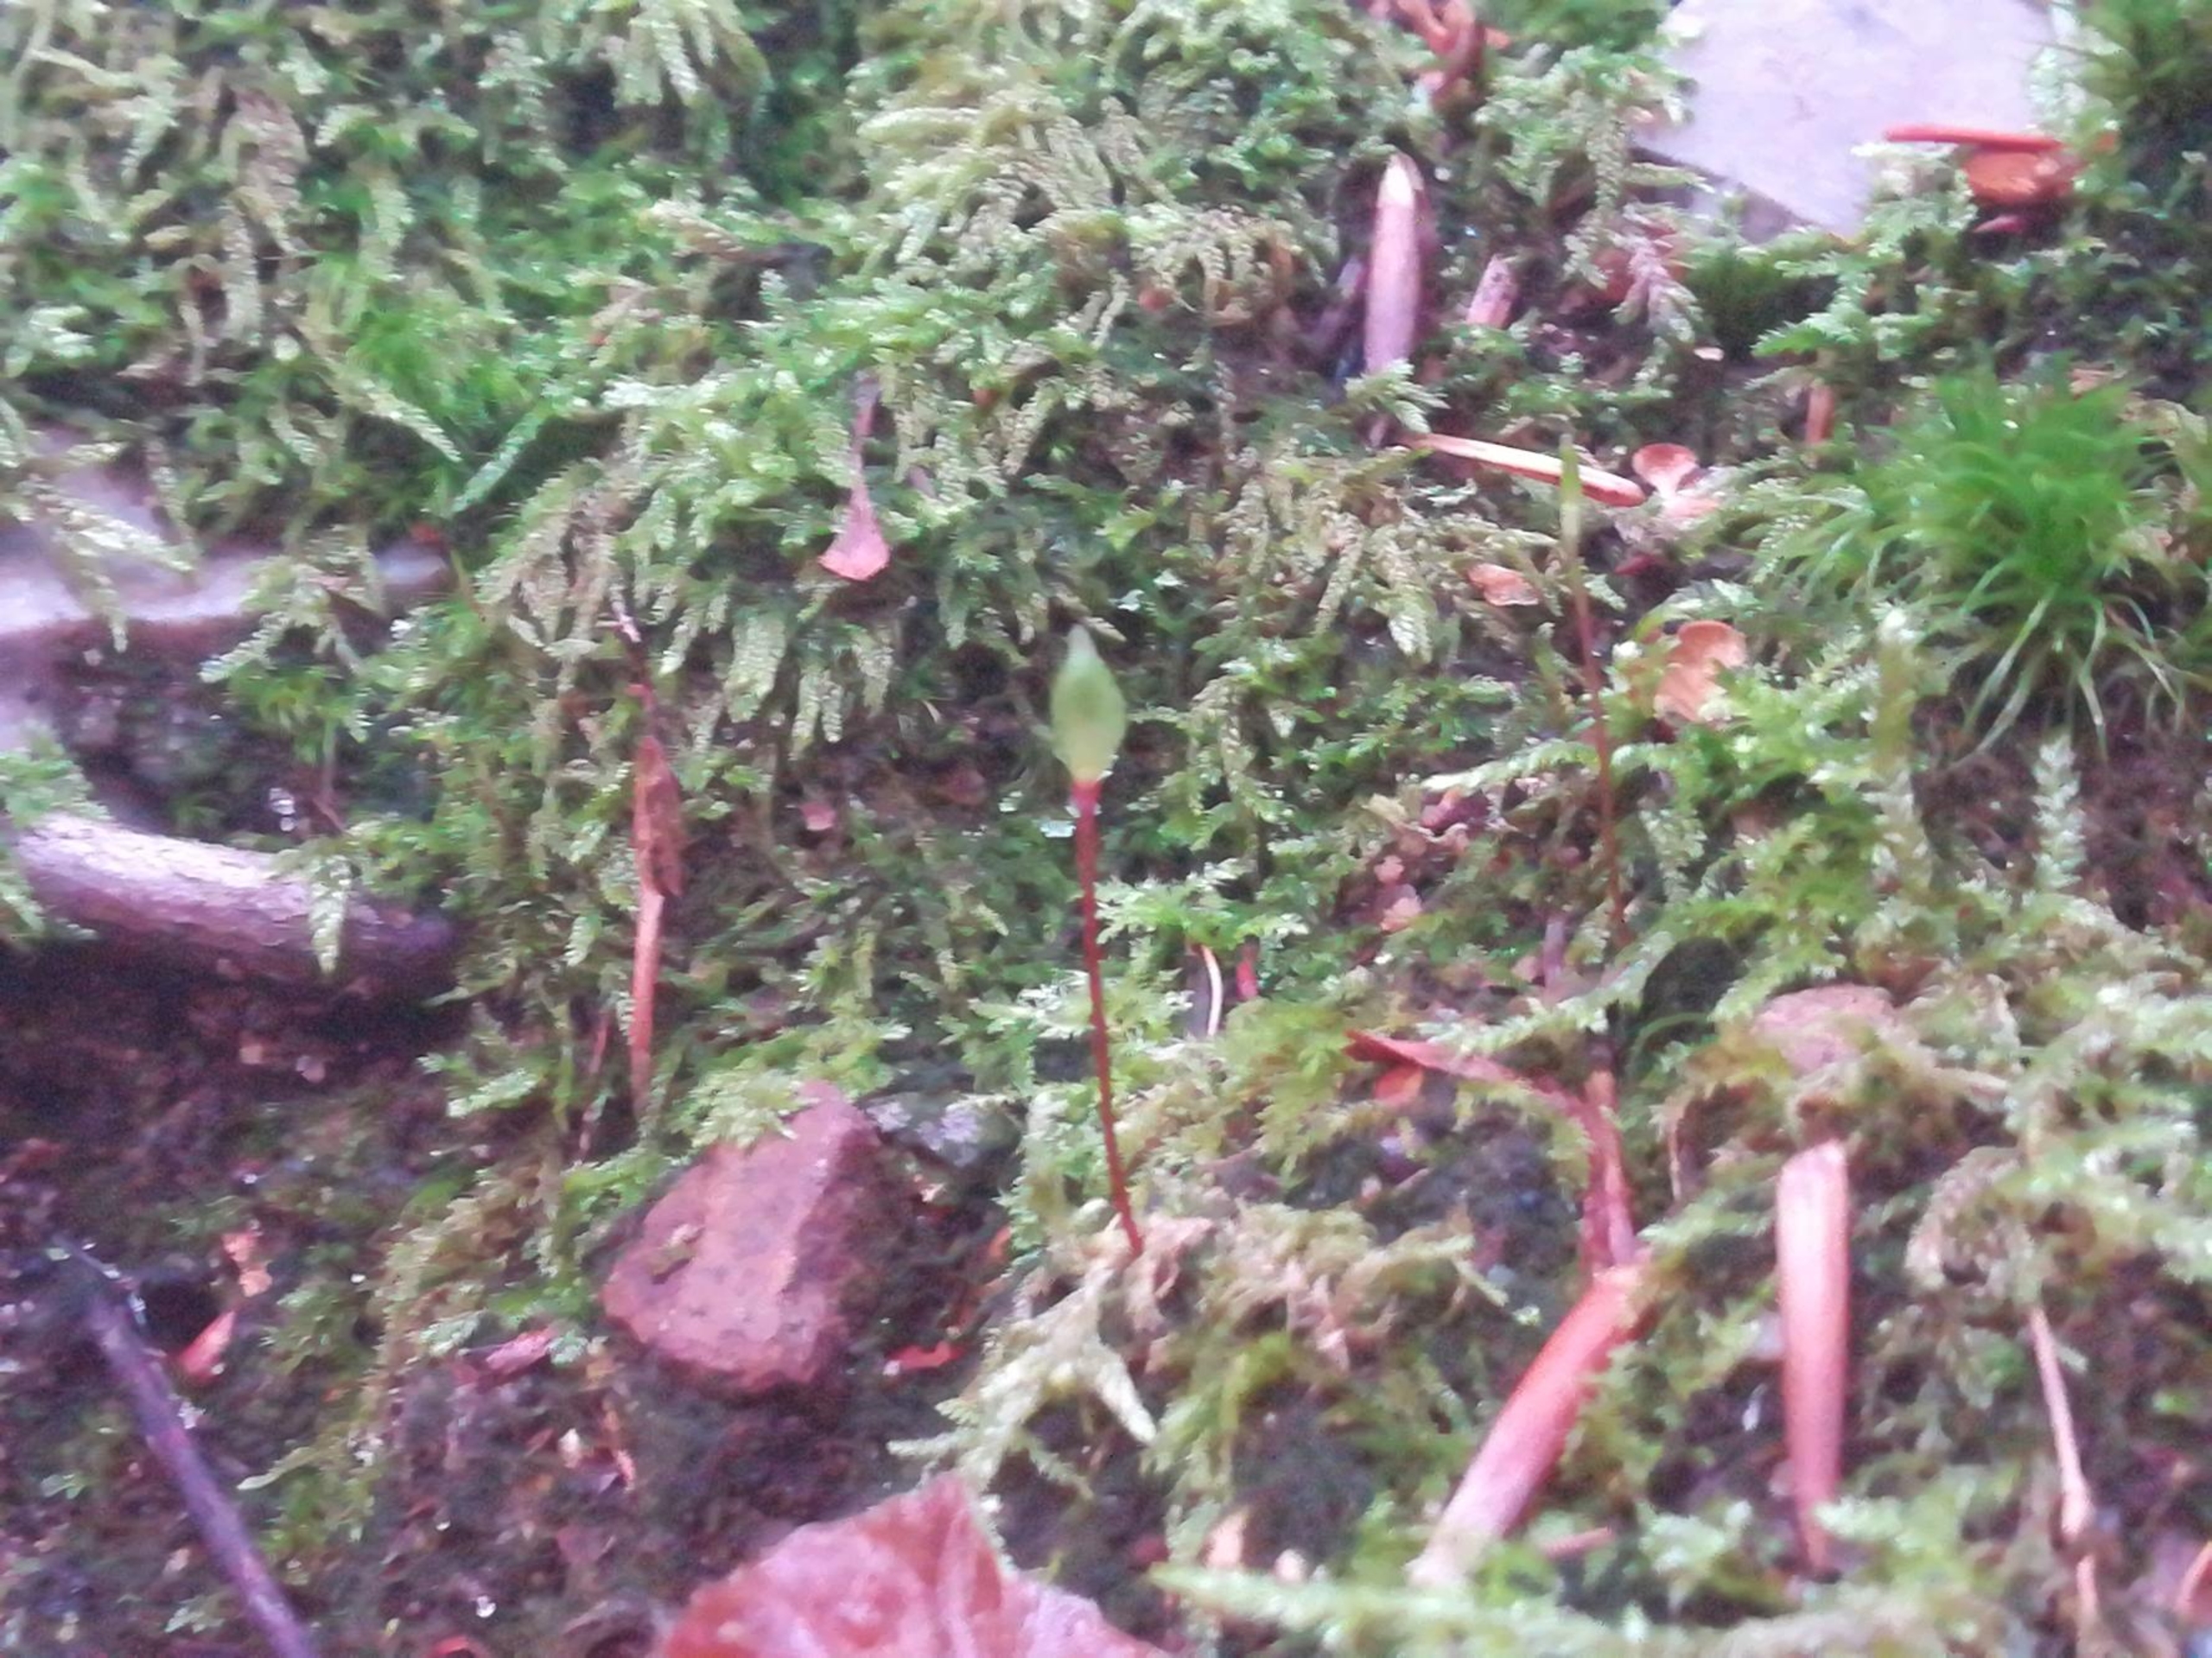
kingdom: Plantae
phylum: Bryophyta
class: Bryopsida
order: Buxbaumiales
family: Buxbaumiaceae
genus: Buxbaumia
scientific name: Buxbaumia aphylla
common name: Rundkapslet buxbaumia
